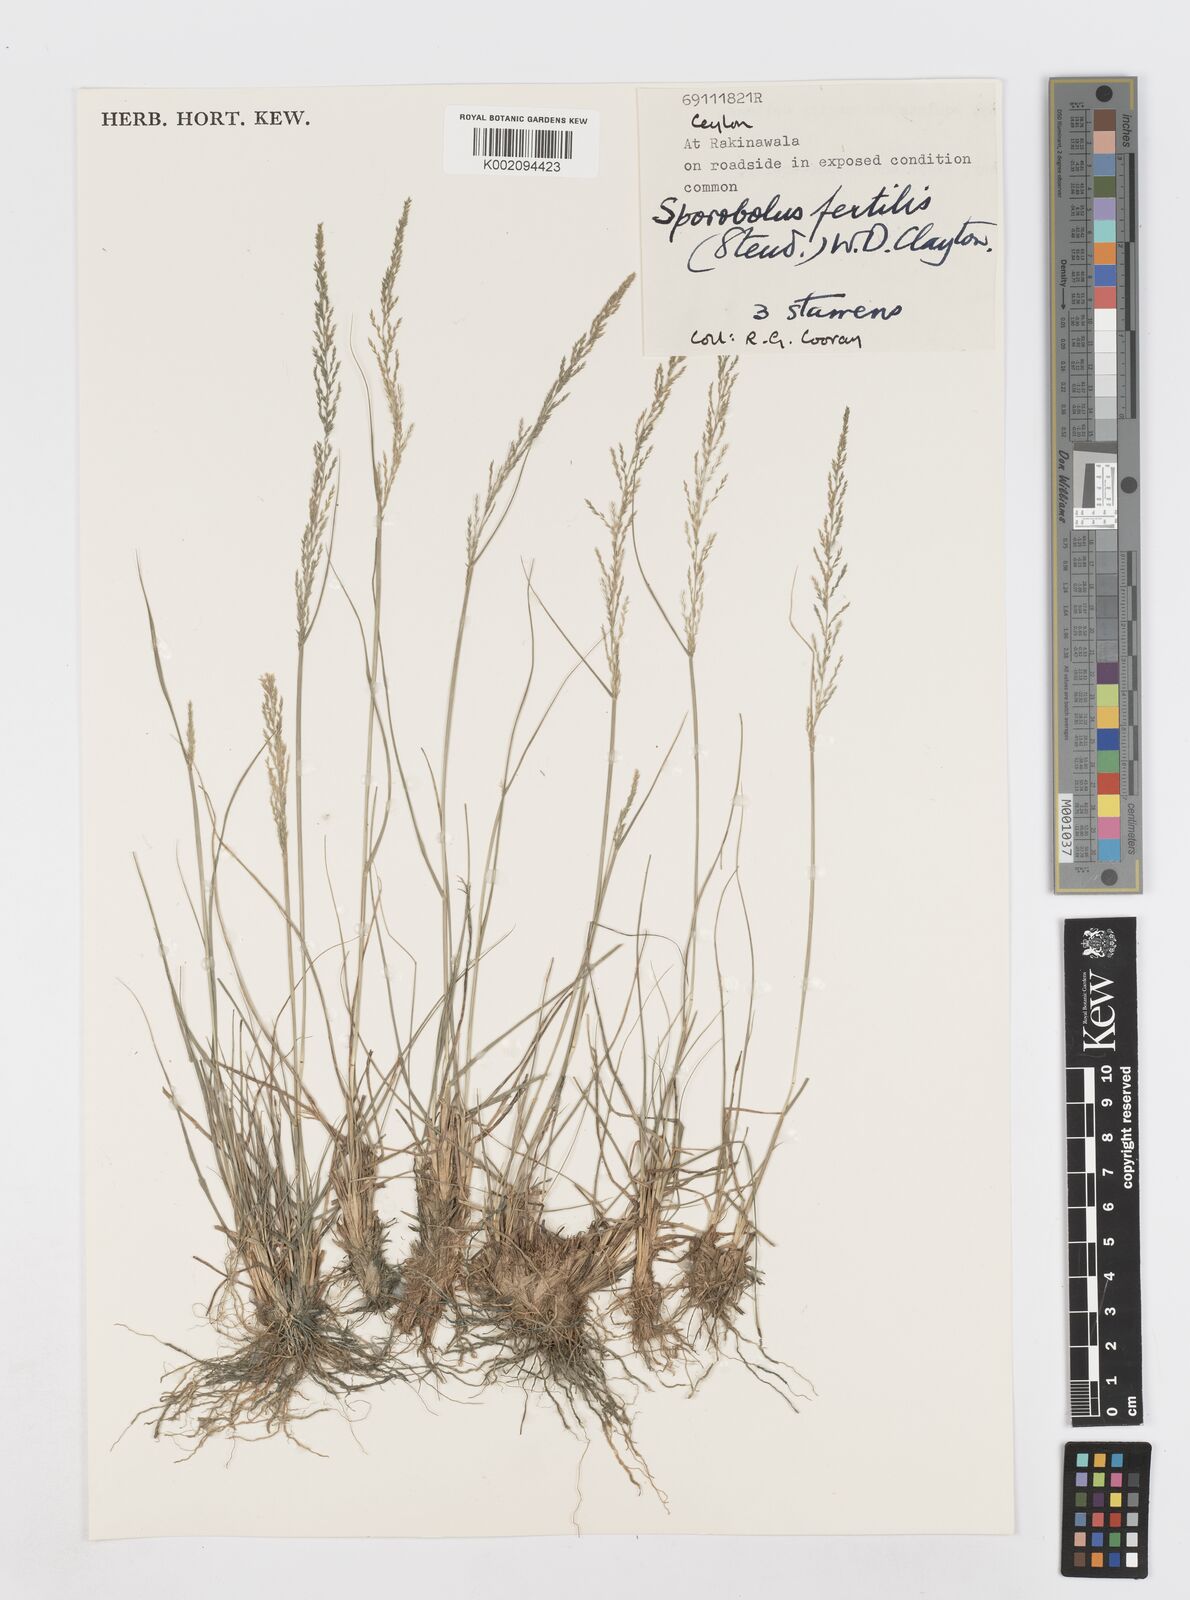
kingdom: Plantae
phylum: Tracheophyta
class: Liliopsida
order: Poales
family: Poaceae
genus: Sporobolus
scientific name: Sporobolus fertilis
